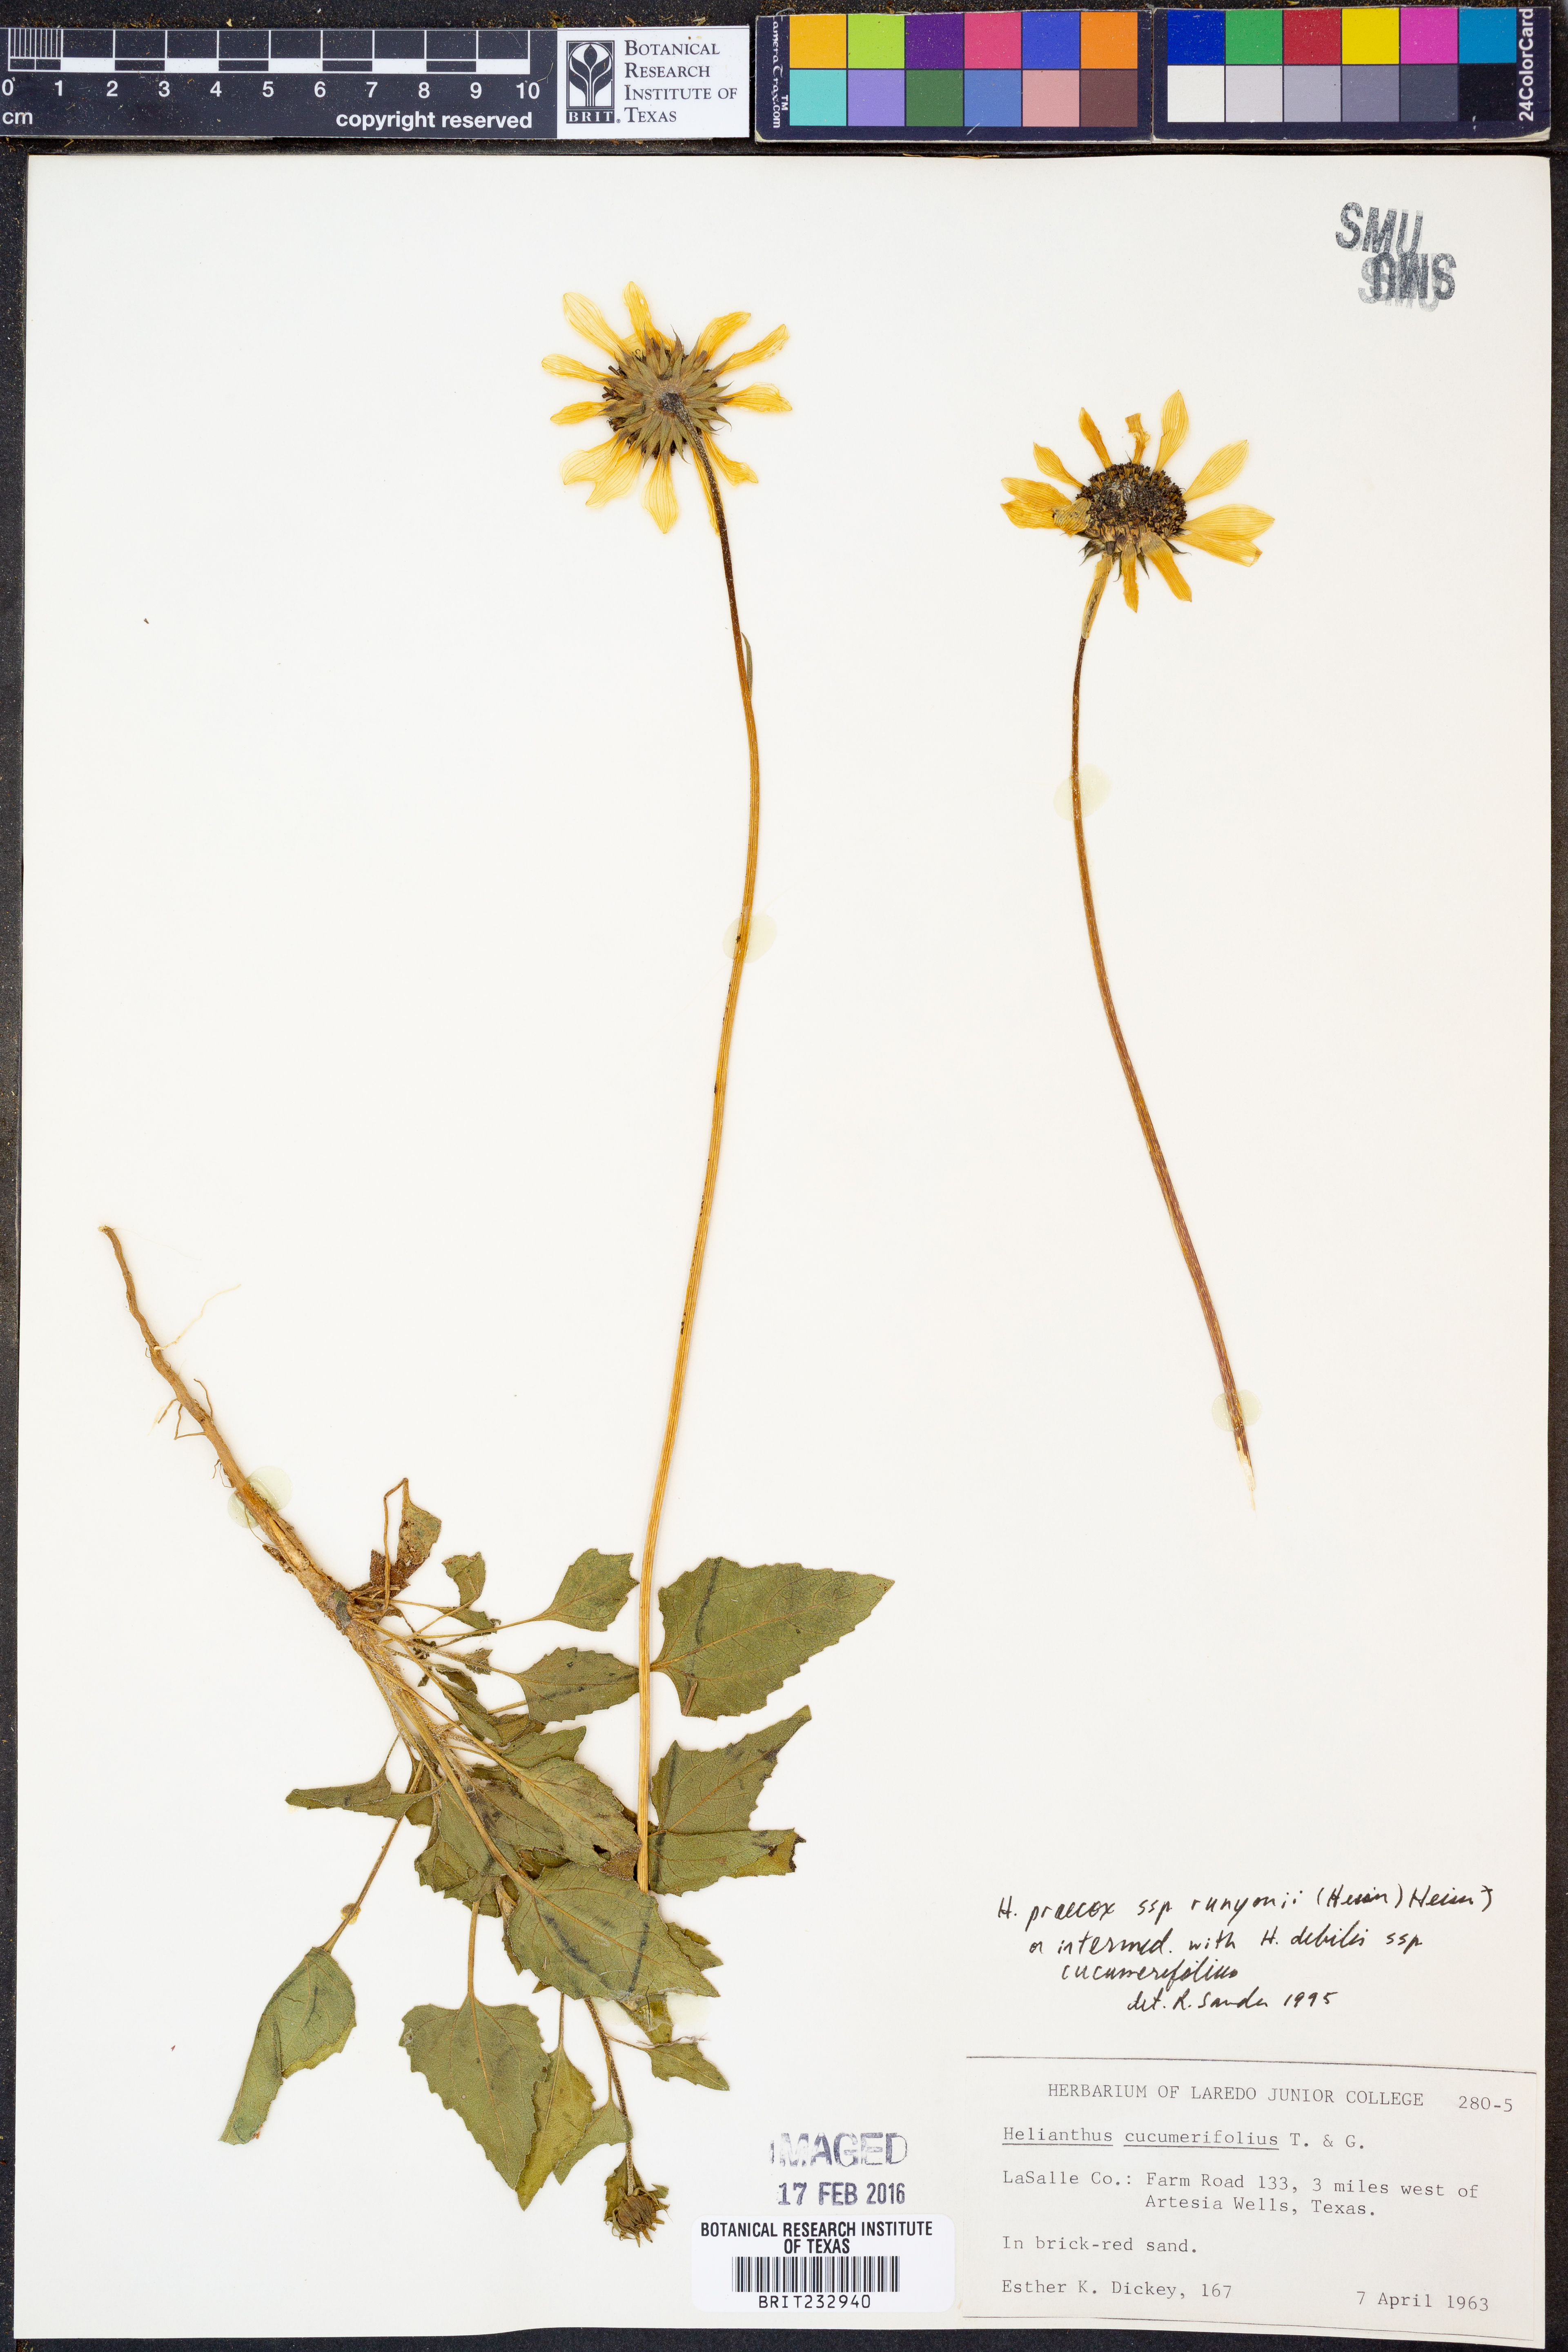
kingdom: Plantae
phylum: Tracheophyta
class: Magnoliopsida
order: Asterales
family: Asteraceae
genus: Helianthus
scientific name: Helianthus praecox
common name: Texas sunflower
